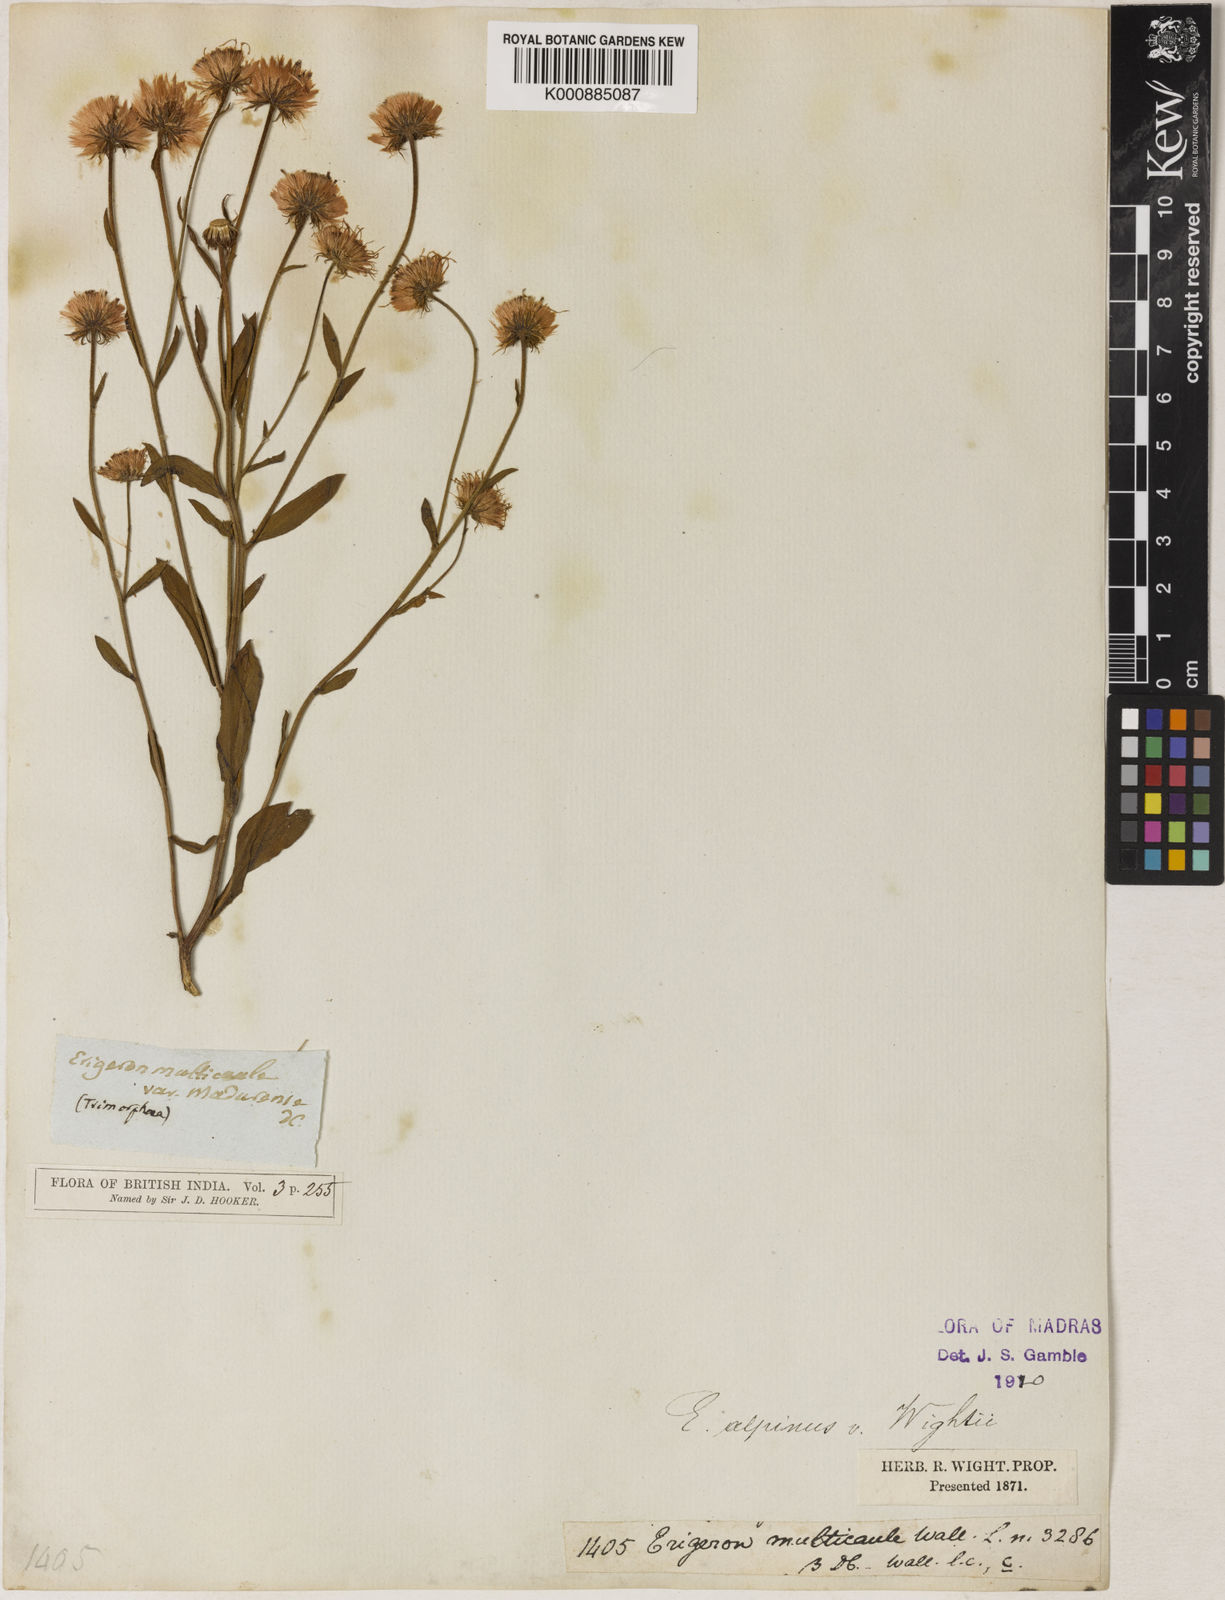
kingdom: Plantae
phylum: Tracheophyta
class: Magnoliopsida
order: Asterales
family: Asteraceae
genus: Erigeron
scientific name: Erigeron alpinus
